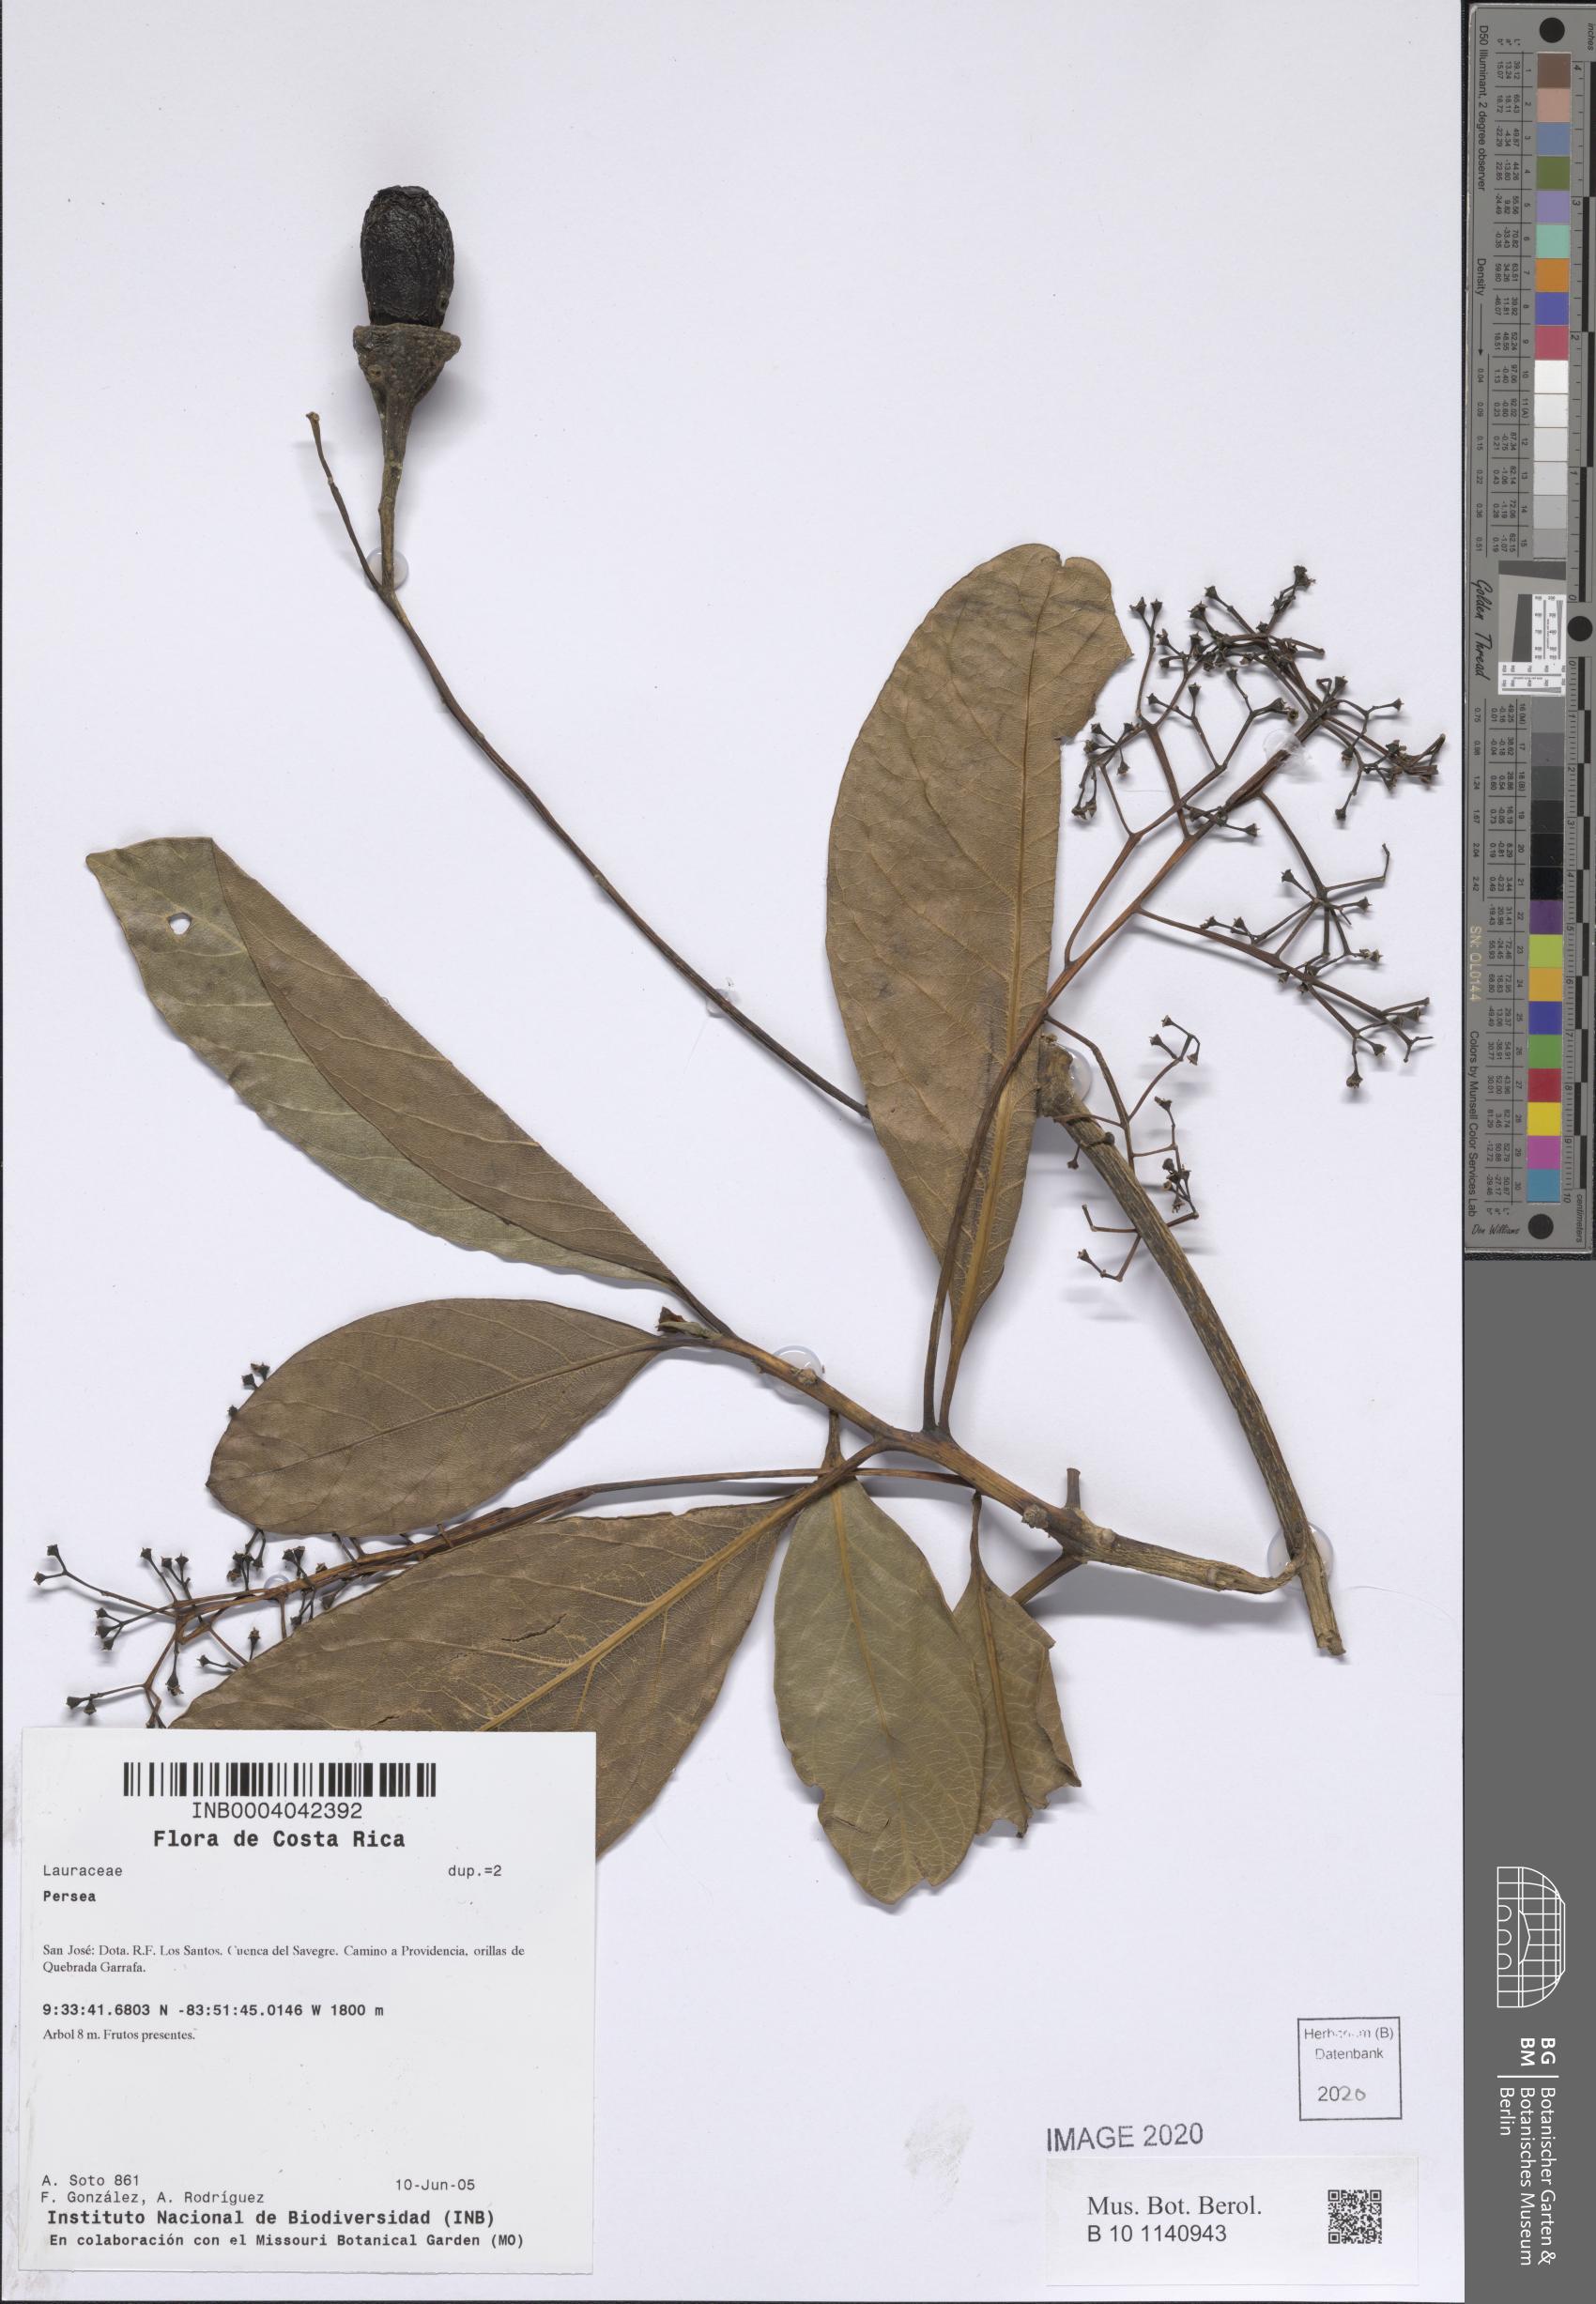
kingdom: Plantae
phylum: Tracheophyta
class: Magnoliopsida
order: Laurales
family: Lauraceae
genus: Persea
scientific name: Persea
